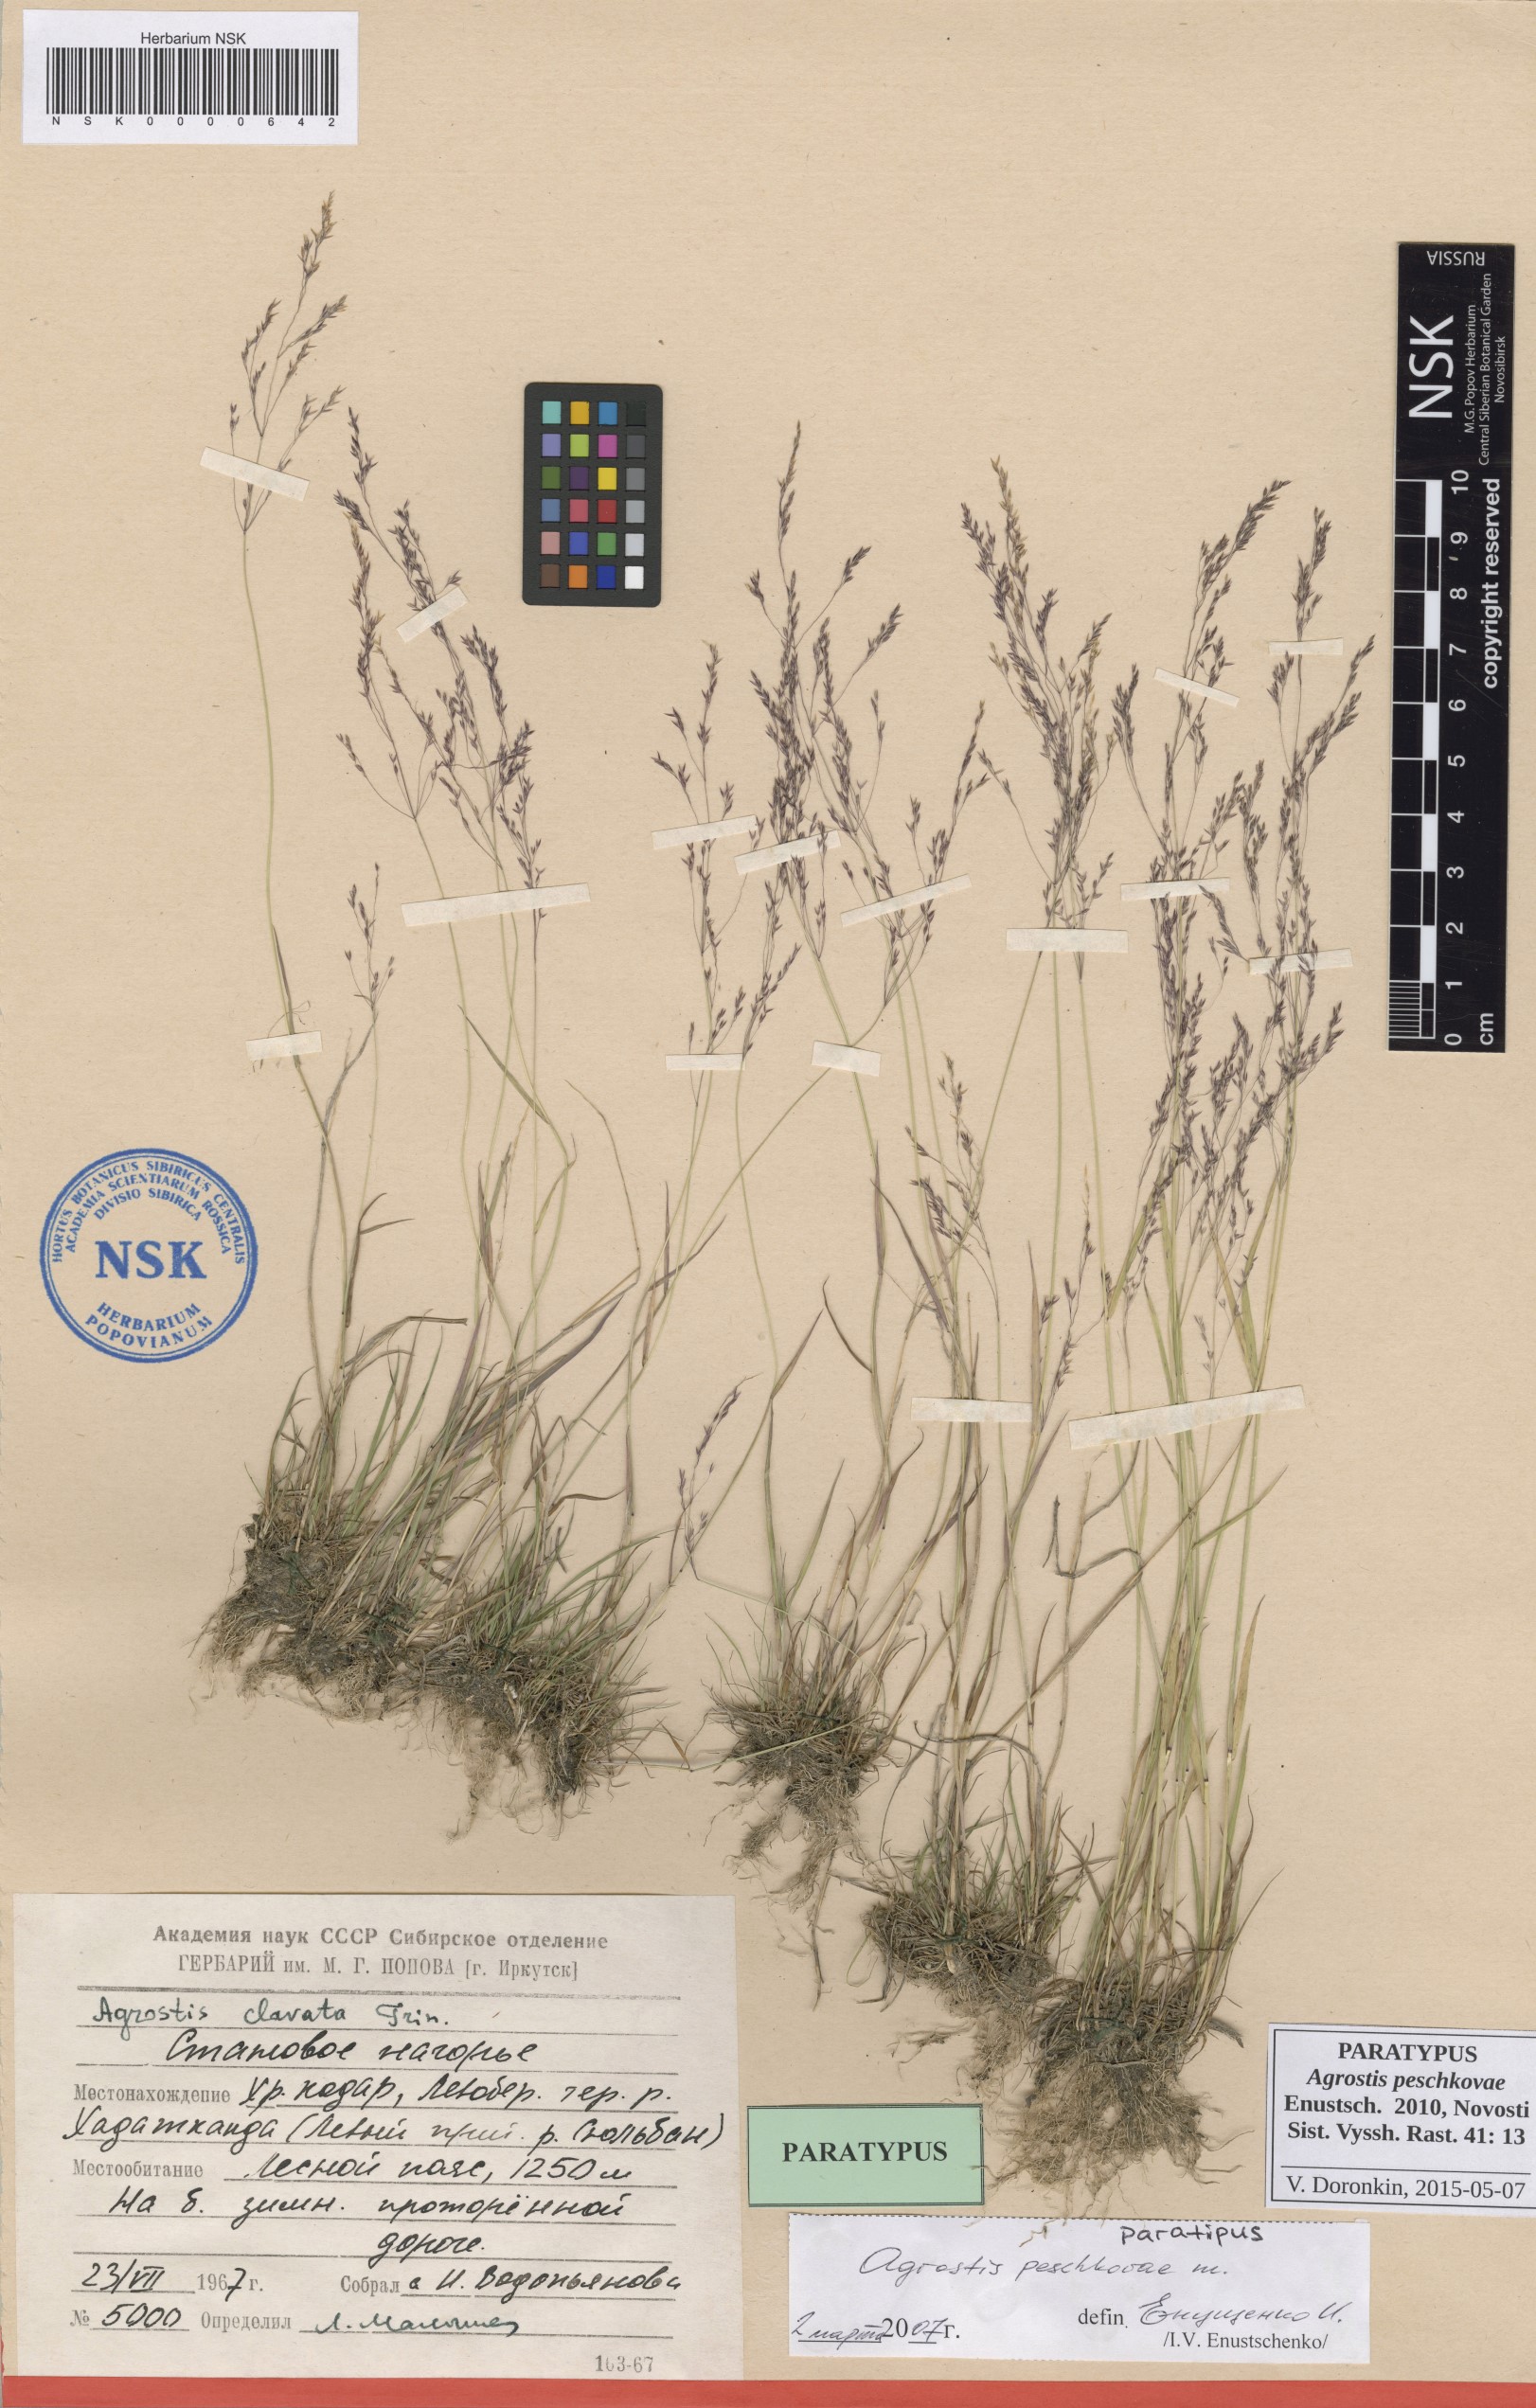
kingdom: Plantae
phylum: Tracheophyta
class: Liliopsida
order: Poales
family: Poaceae
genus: Agrostis
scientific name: Agrostis peschkovae
